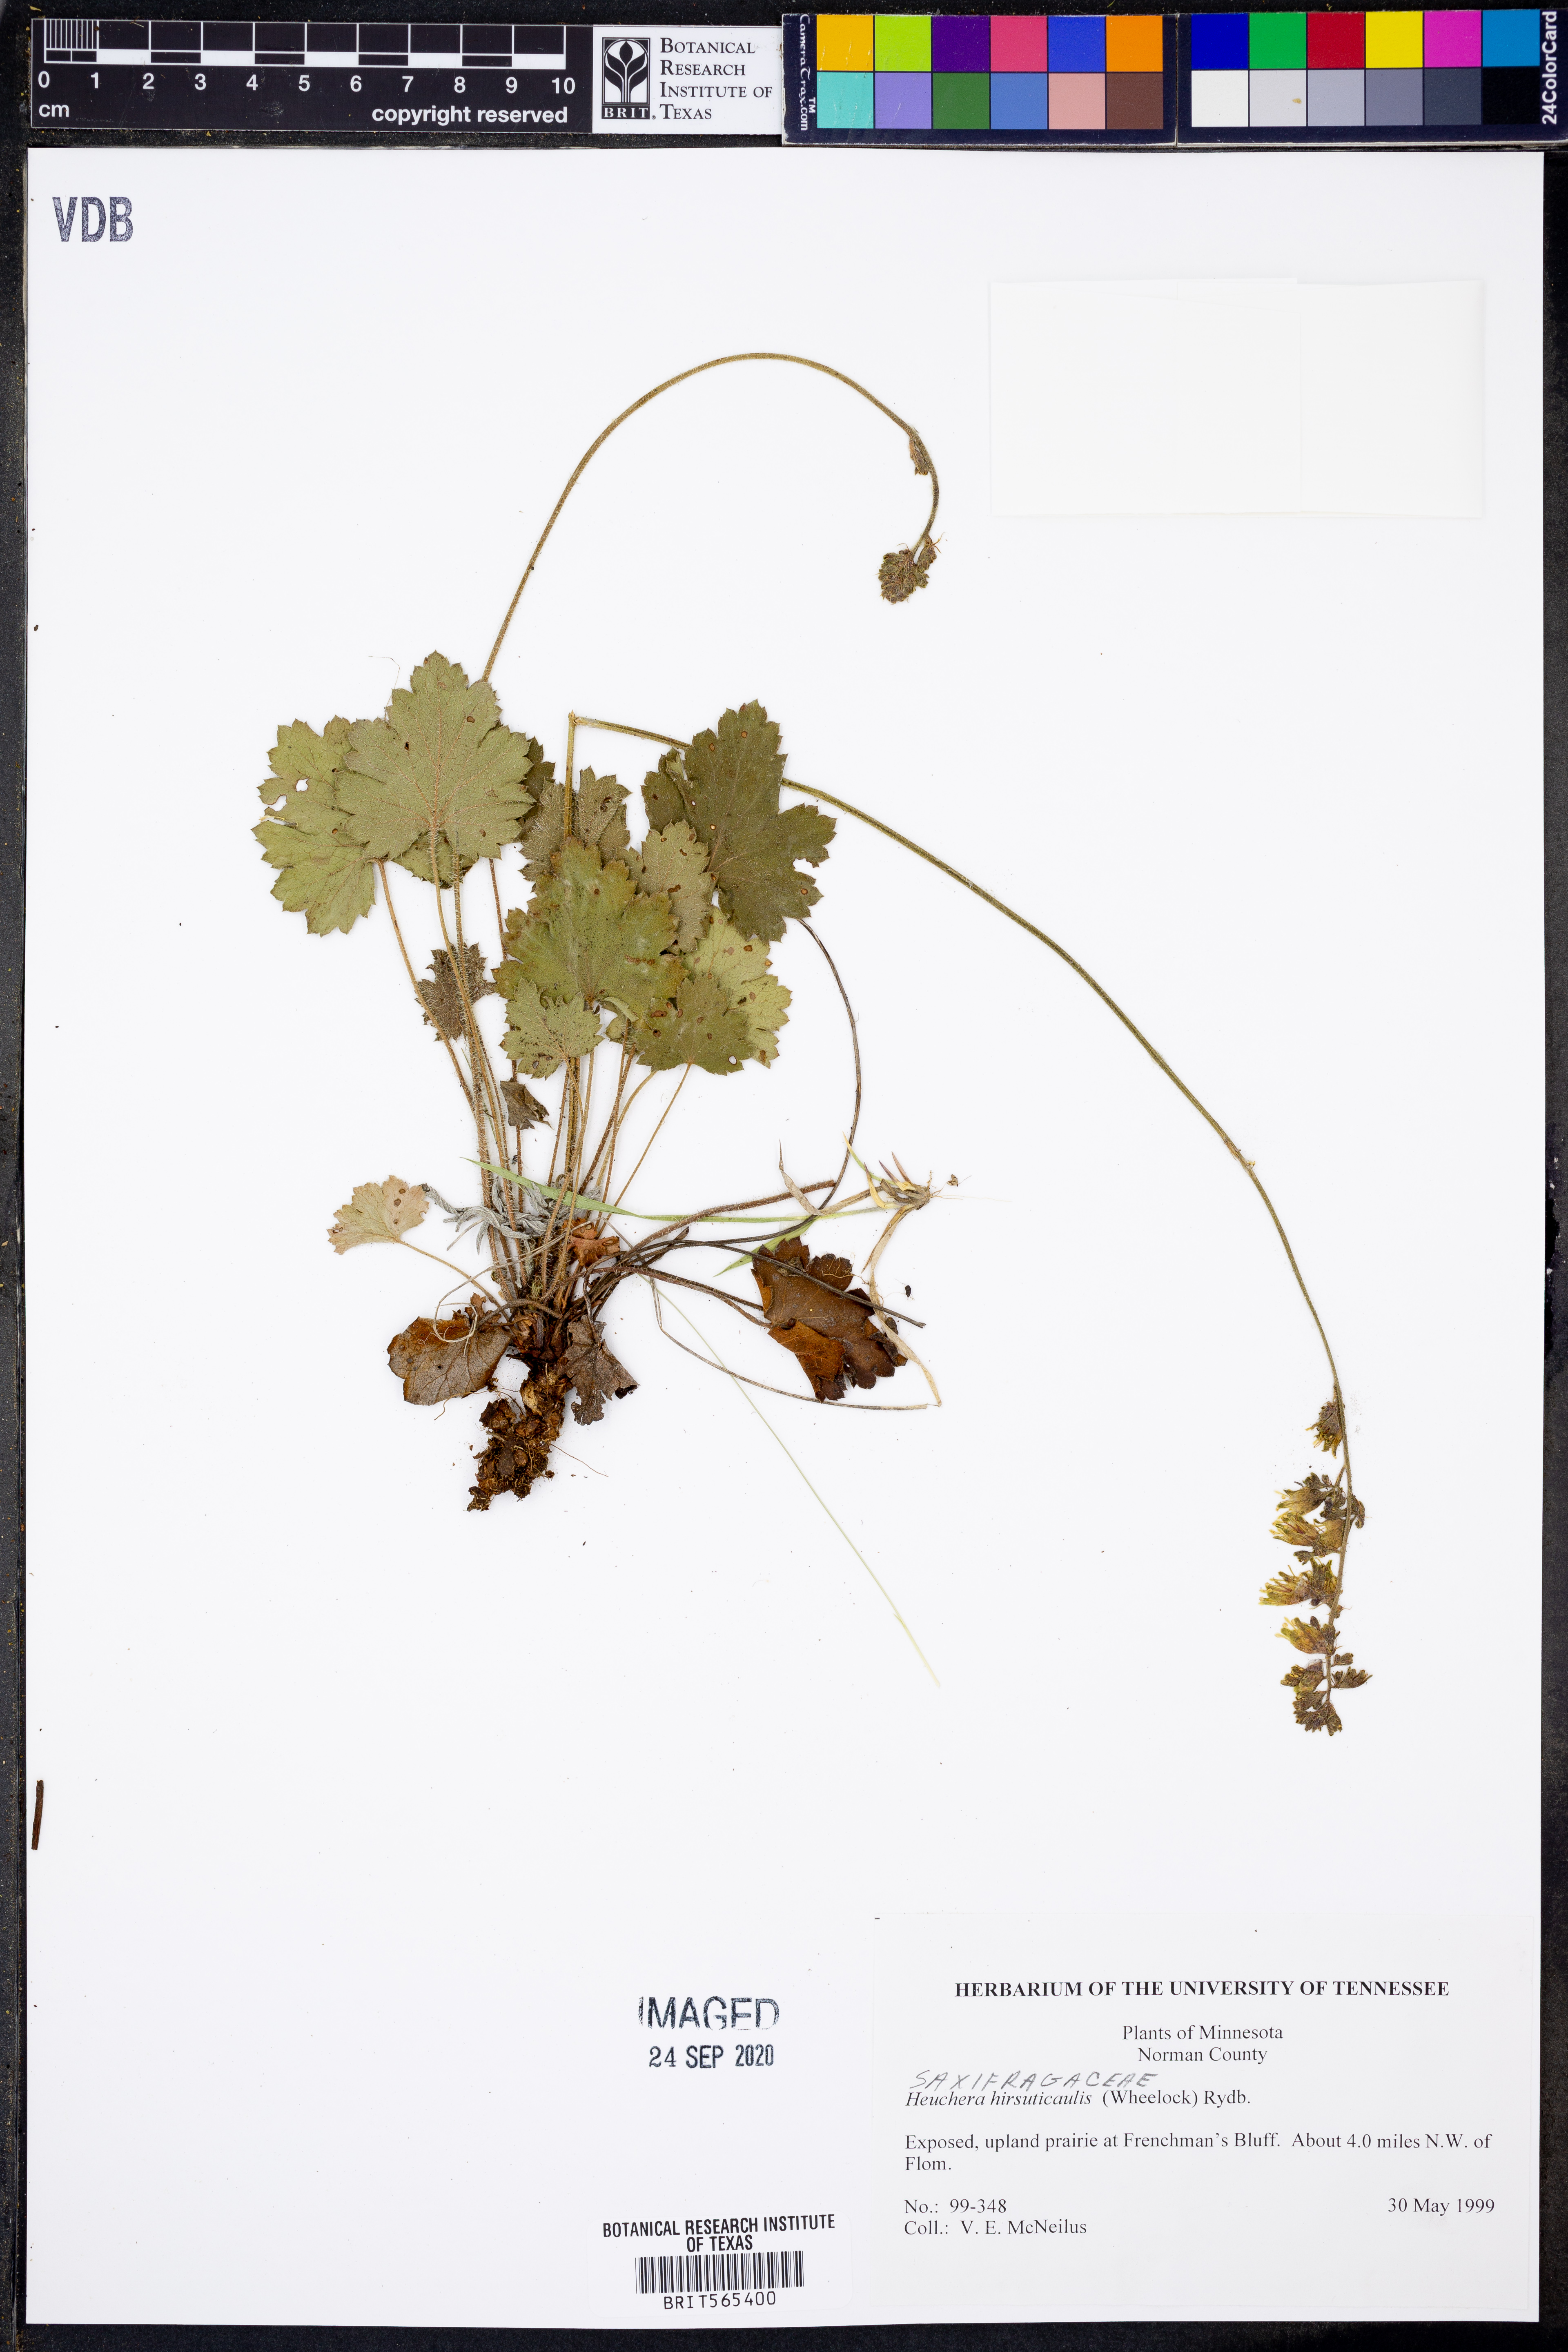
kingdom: Plantae
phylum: Tracheophyta
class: Magnoliopsida
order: Saxifragales
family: Saxifragaceae
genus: Heuchera
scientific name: Heuchera americana
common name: Alumroot
